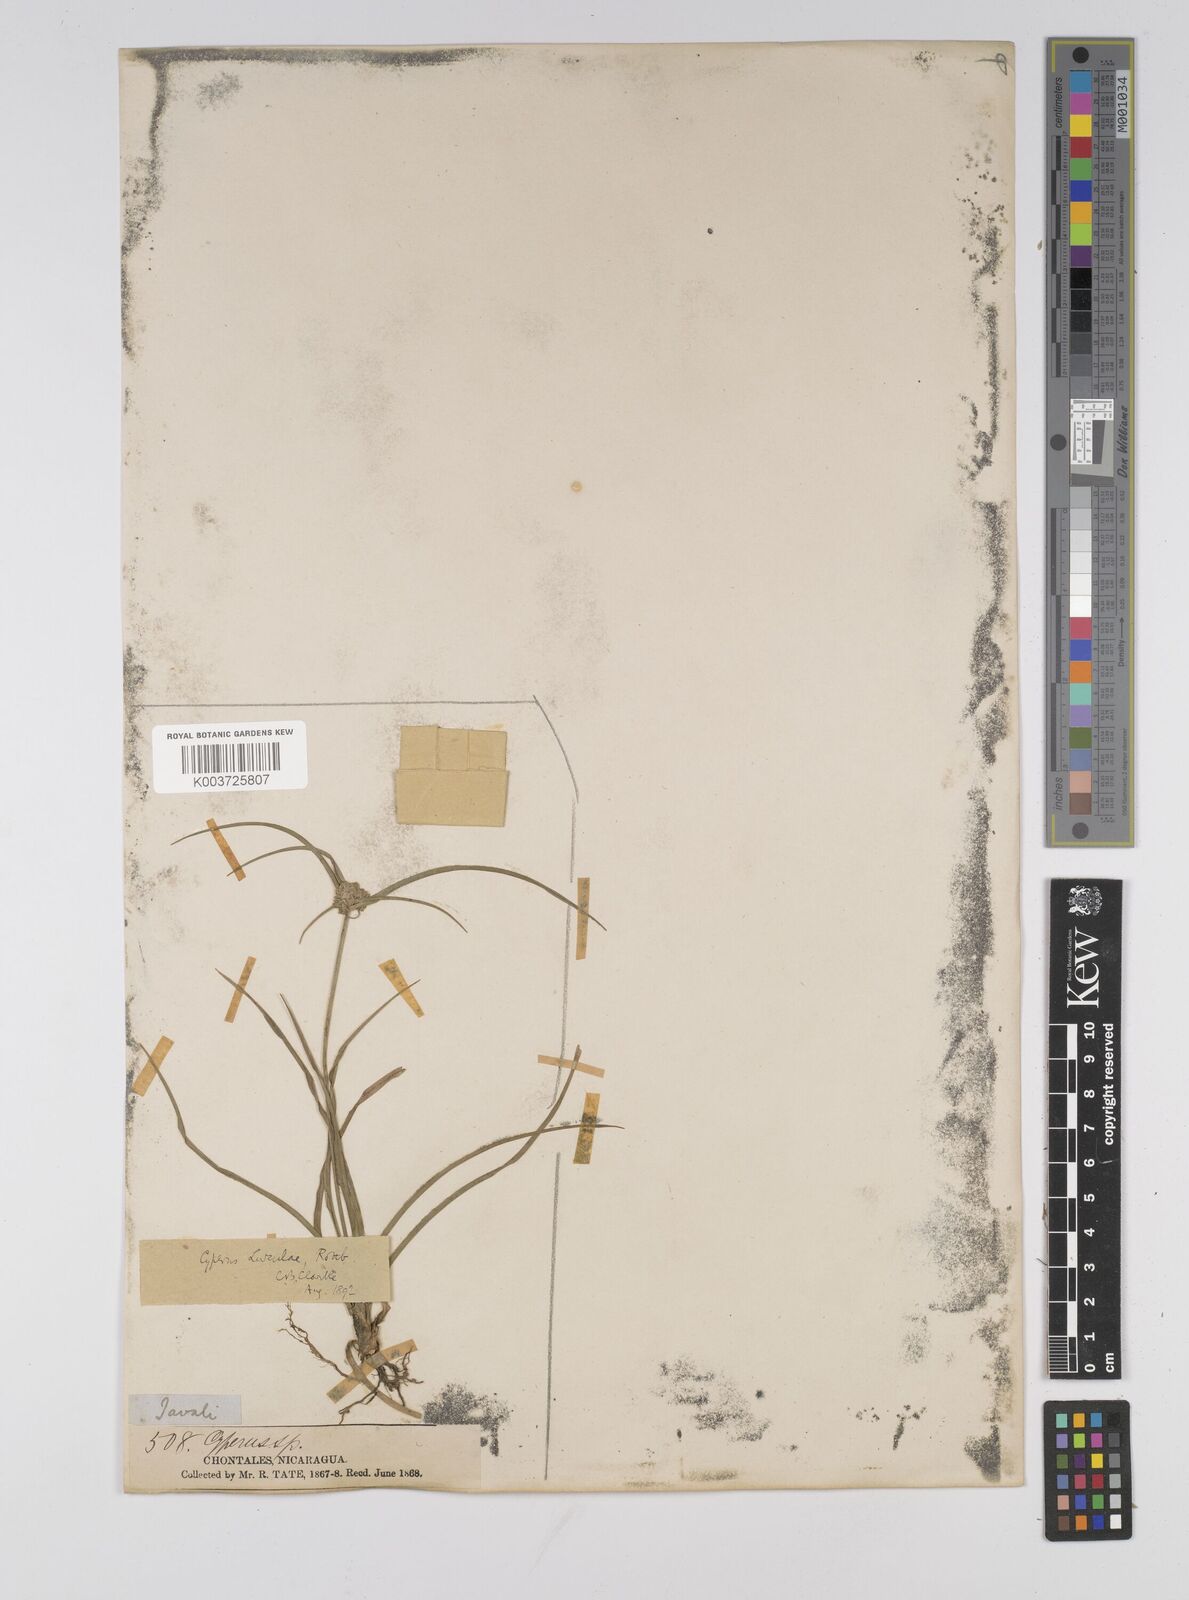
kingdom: Plantae
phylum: Tracheophyta
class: Liliopsida
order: Poales
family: Cyperaceae
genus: Cyperus
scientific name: Cyperus luzulae
